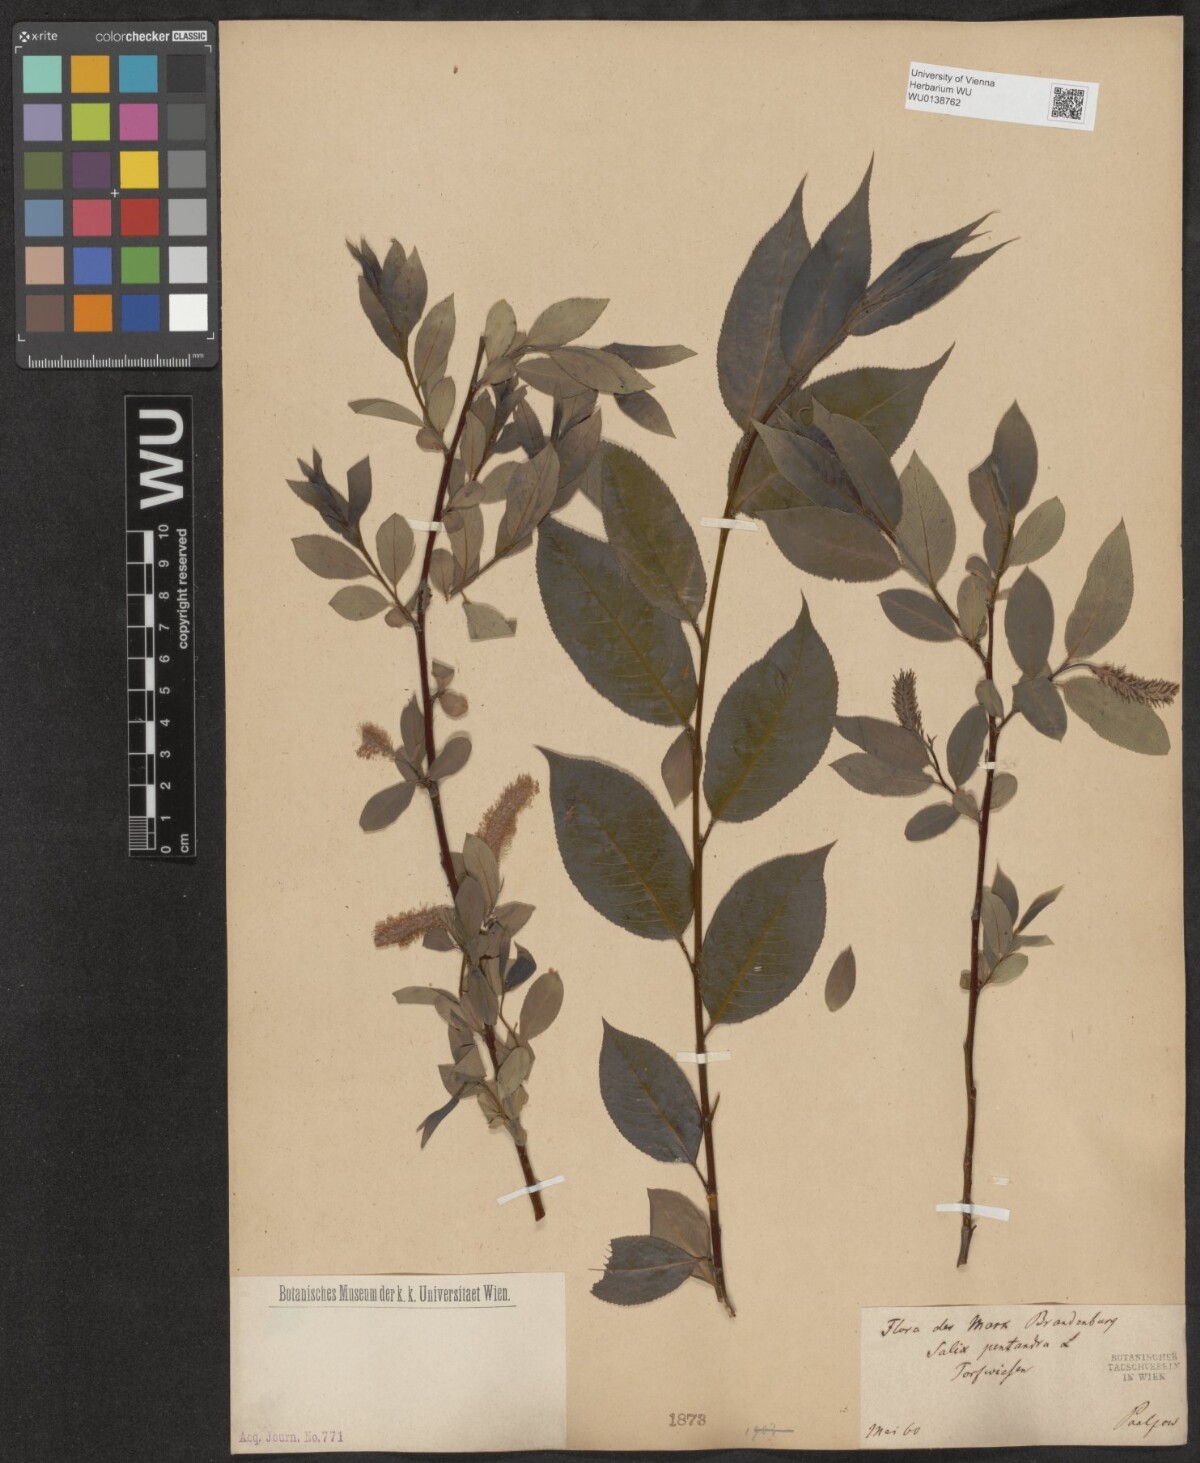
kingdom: Plantae
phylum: Tracheophyta
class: Magnoliopsida
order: Malpighiales
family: Salicaceae
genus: Salix
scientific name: Salix pentandra
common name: Bay willow
